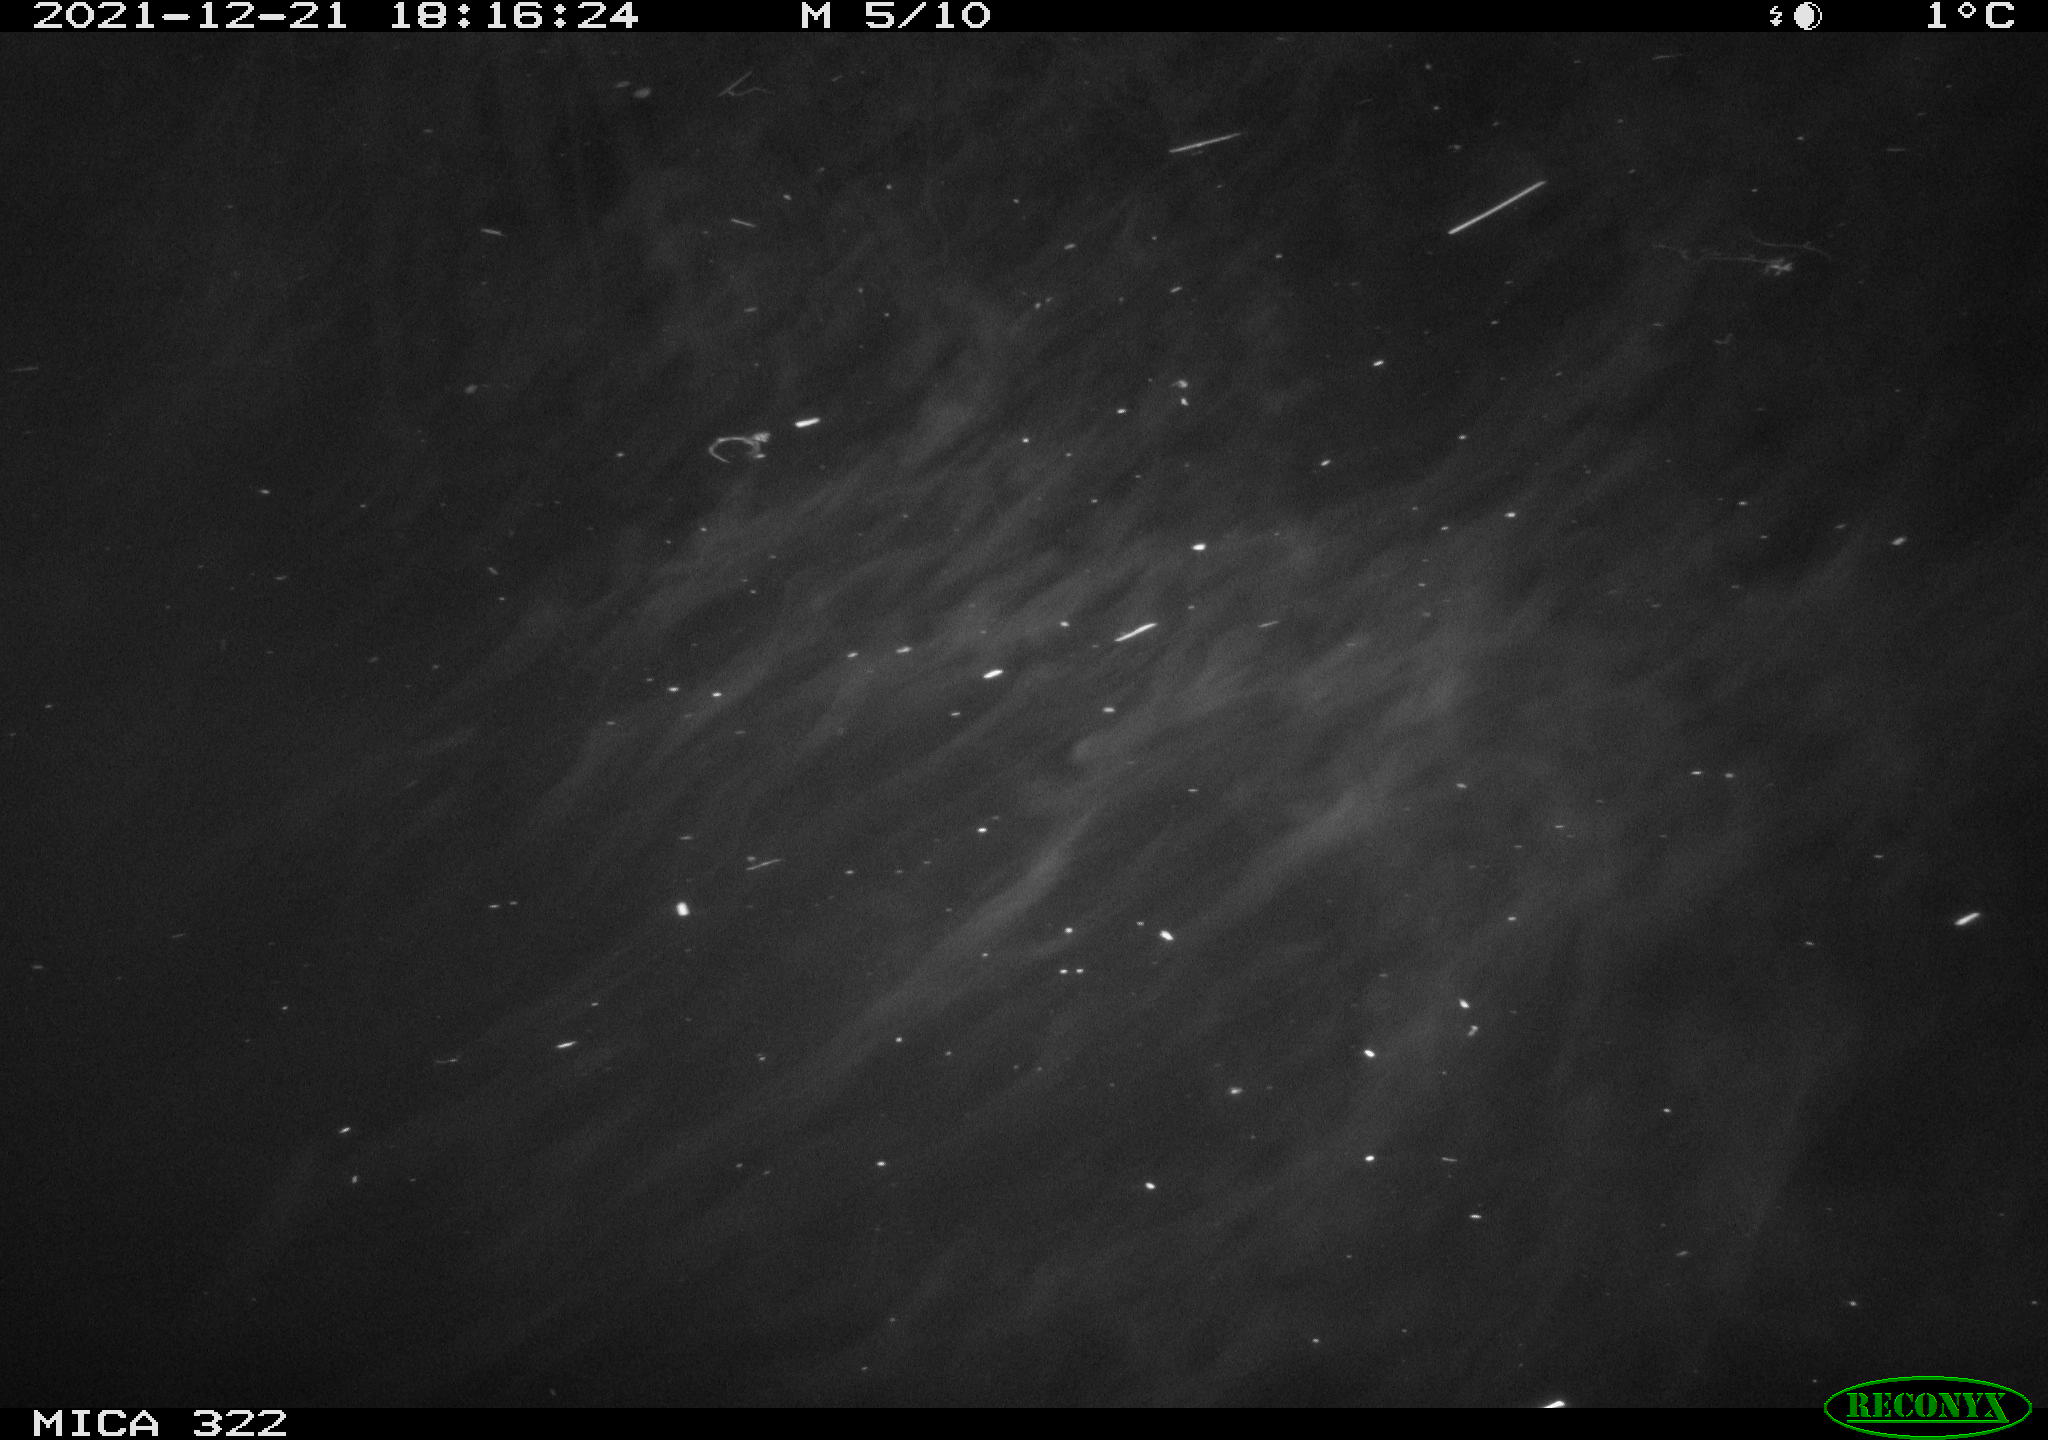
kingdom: Animalia
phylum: Chordata
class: Mammalia
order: Rodentia
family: Muridae
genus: Rattus
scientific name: Rattus norvegicus
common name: Brown rat
